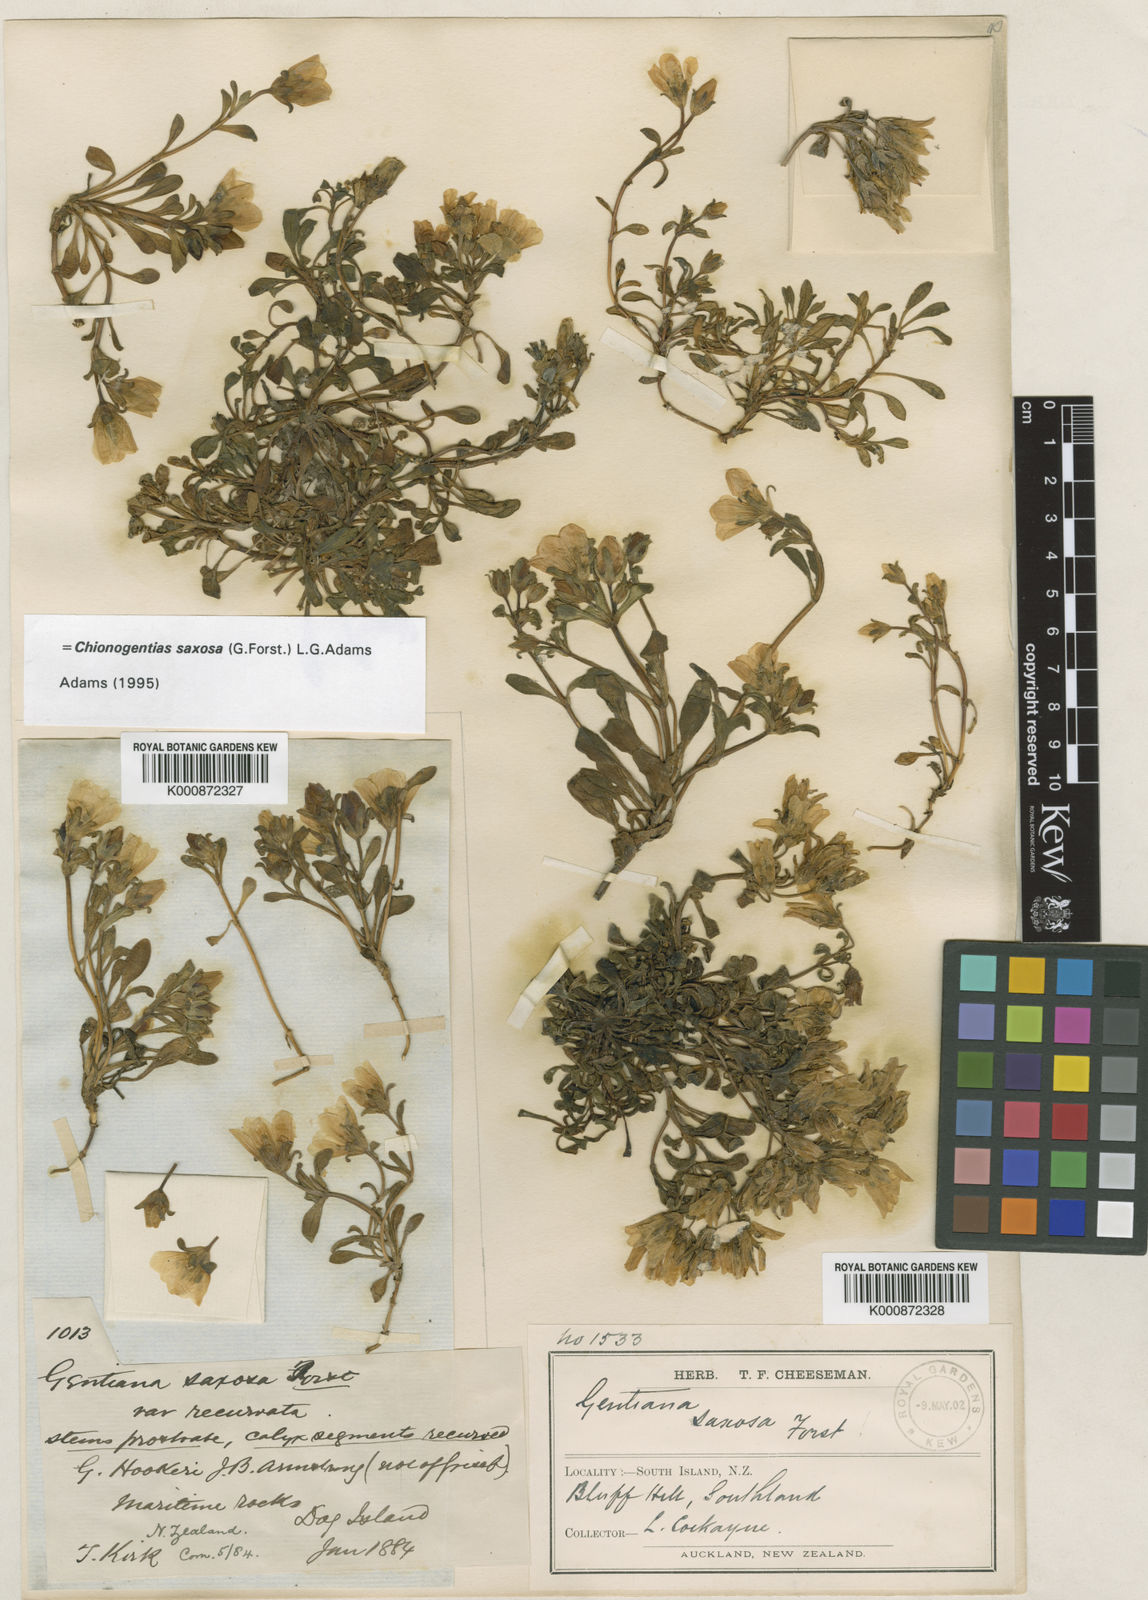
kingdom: Plantae
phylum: Tracheophyta
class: Magnoliopsida
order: Gentianales
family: Gentianaceae
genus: Gentianella
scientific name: Gentianella saxosa
